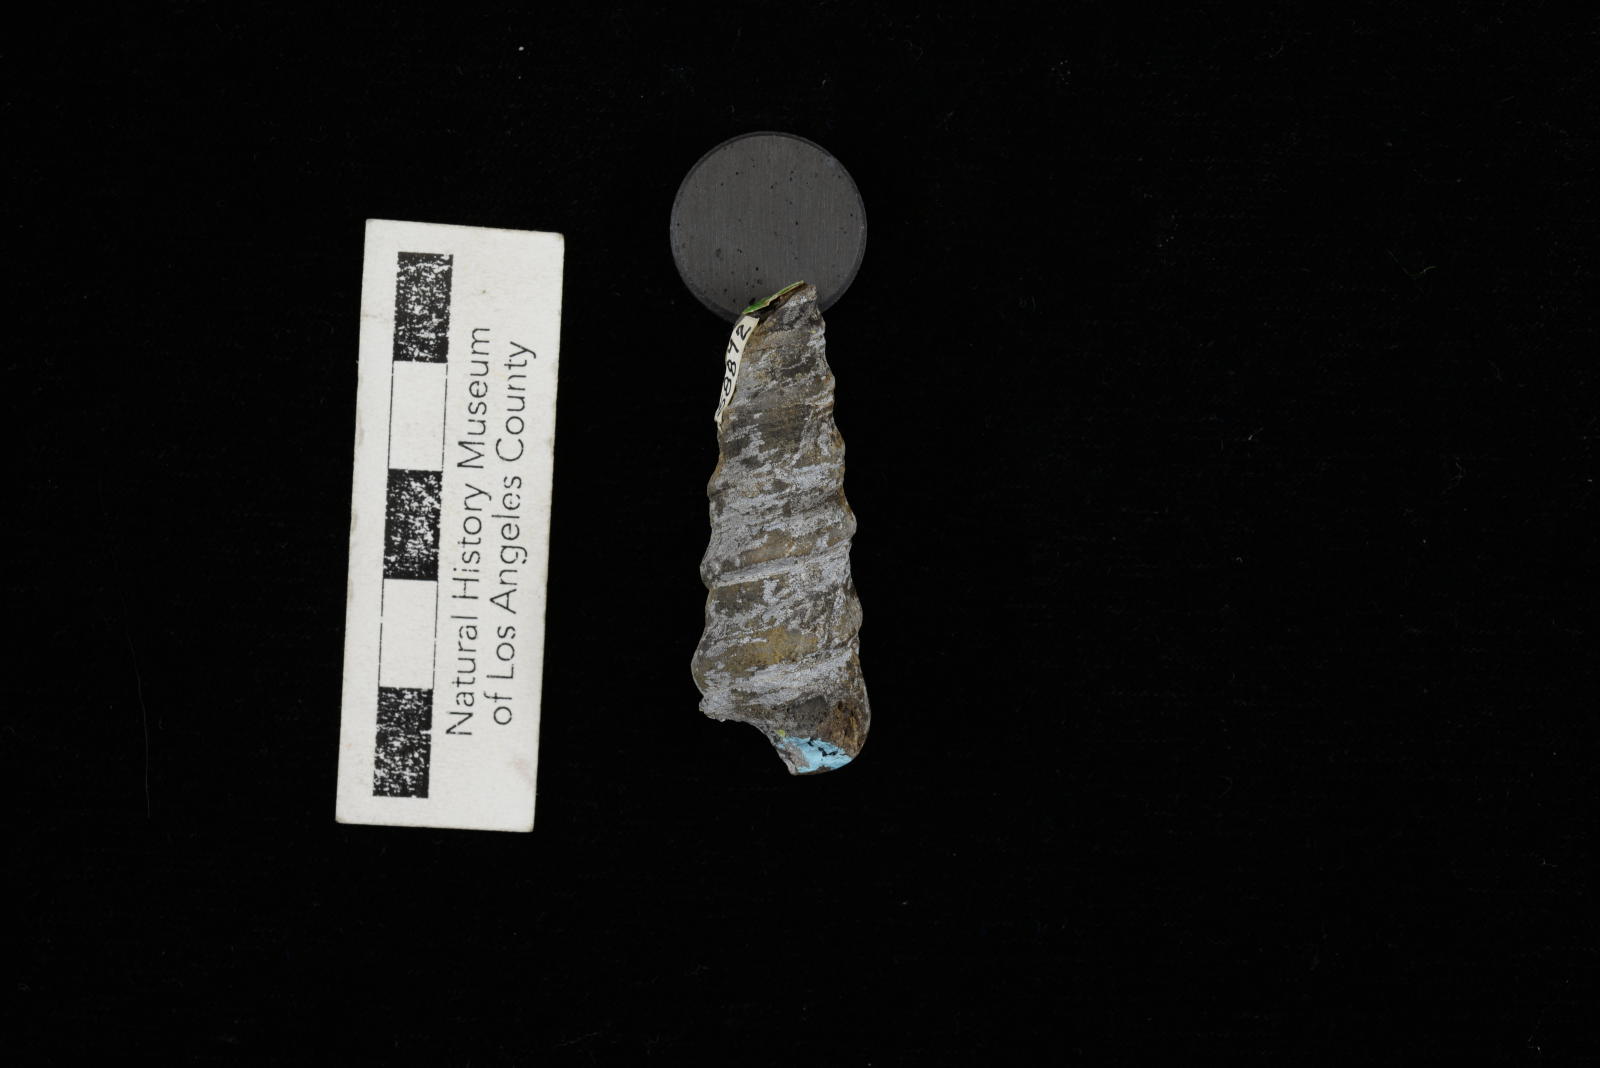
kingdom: Animalia
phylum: Mollusca
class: Gastropoda
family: Turritellidae
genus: Turritella
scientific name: Turritella peninsularis
